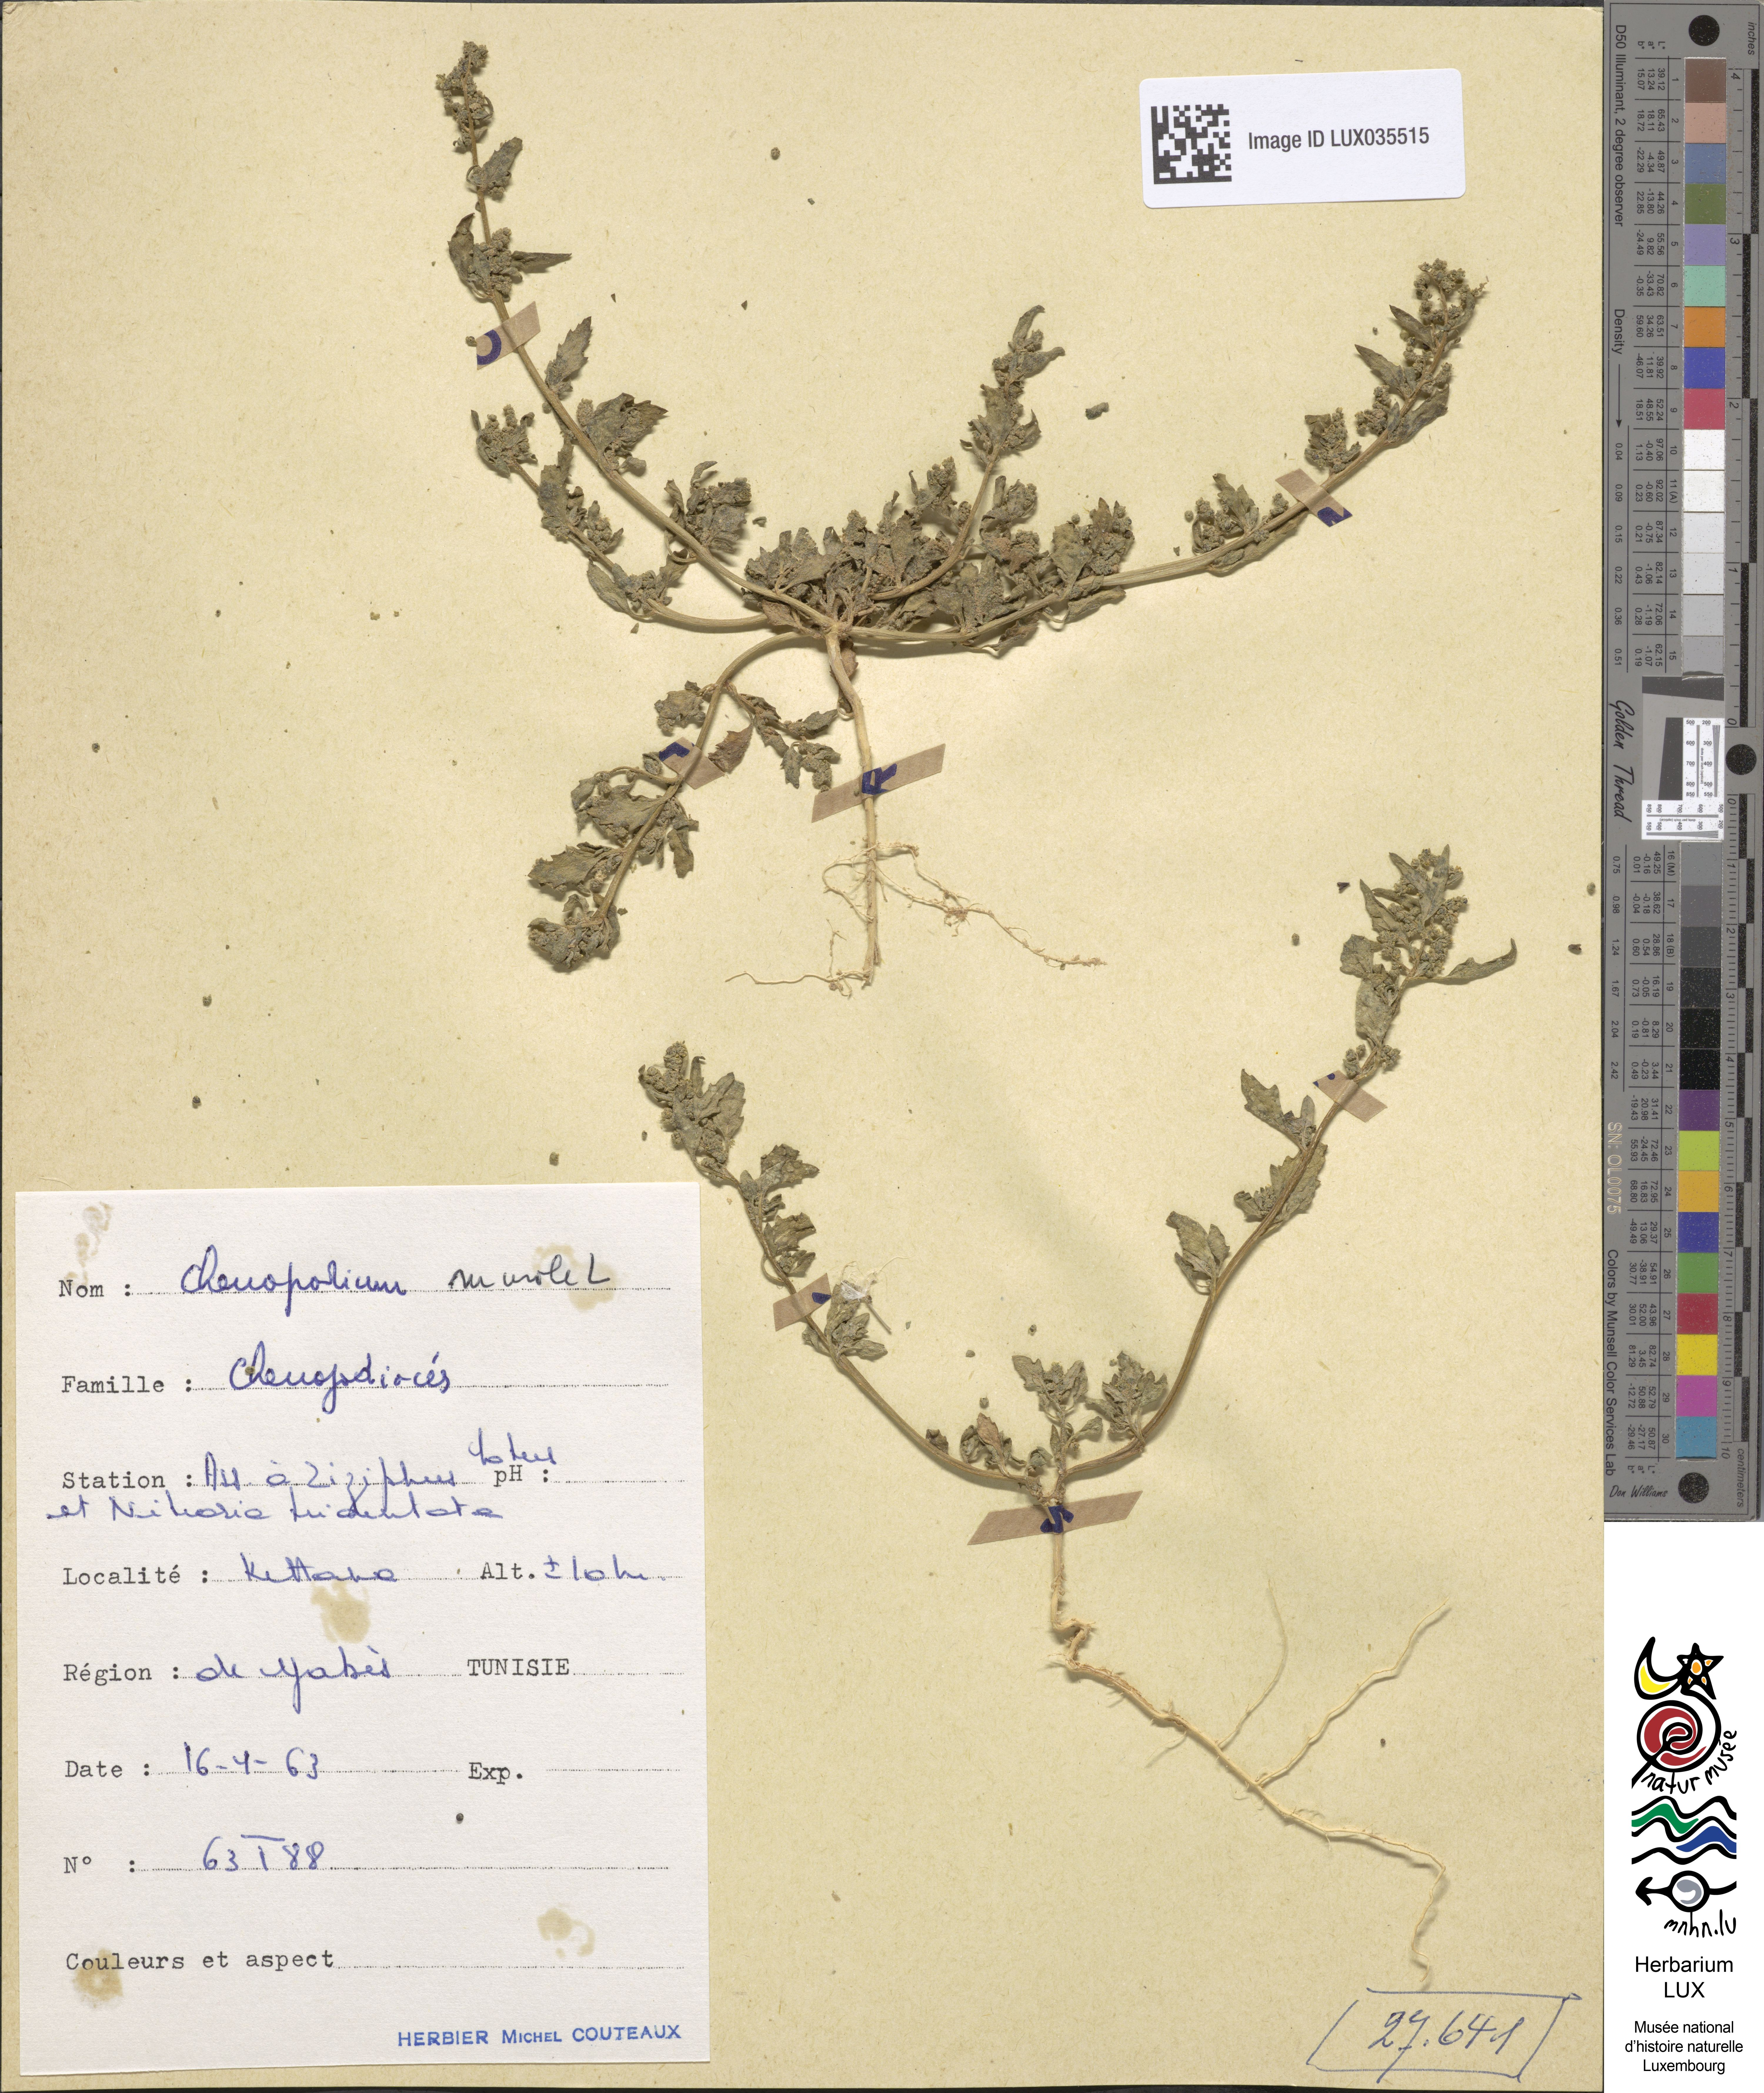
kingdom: Plantae
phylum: Tracheophyta
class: Magnoliopsida
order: Caryophyllales
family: Amaranthaceae
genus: Chenopodiastrum
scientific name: Chenopodiastrum murale
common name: Sowbane
